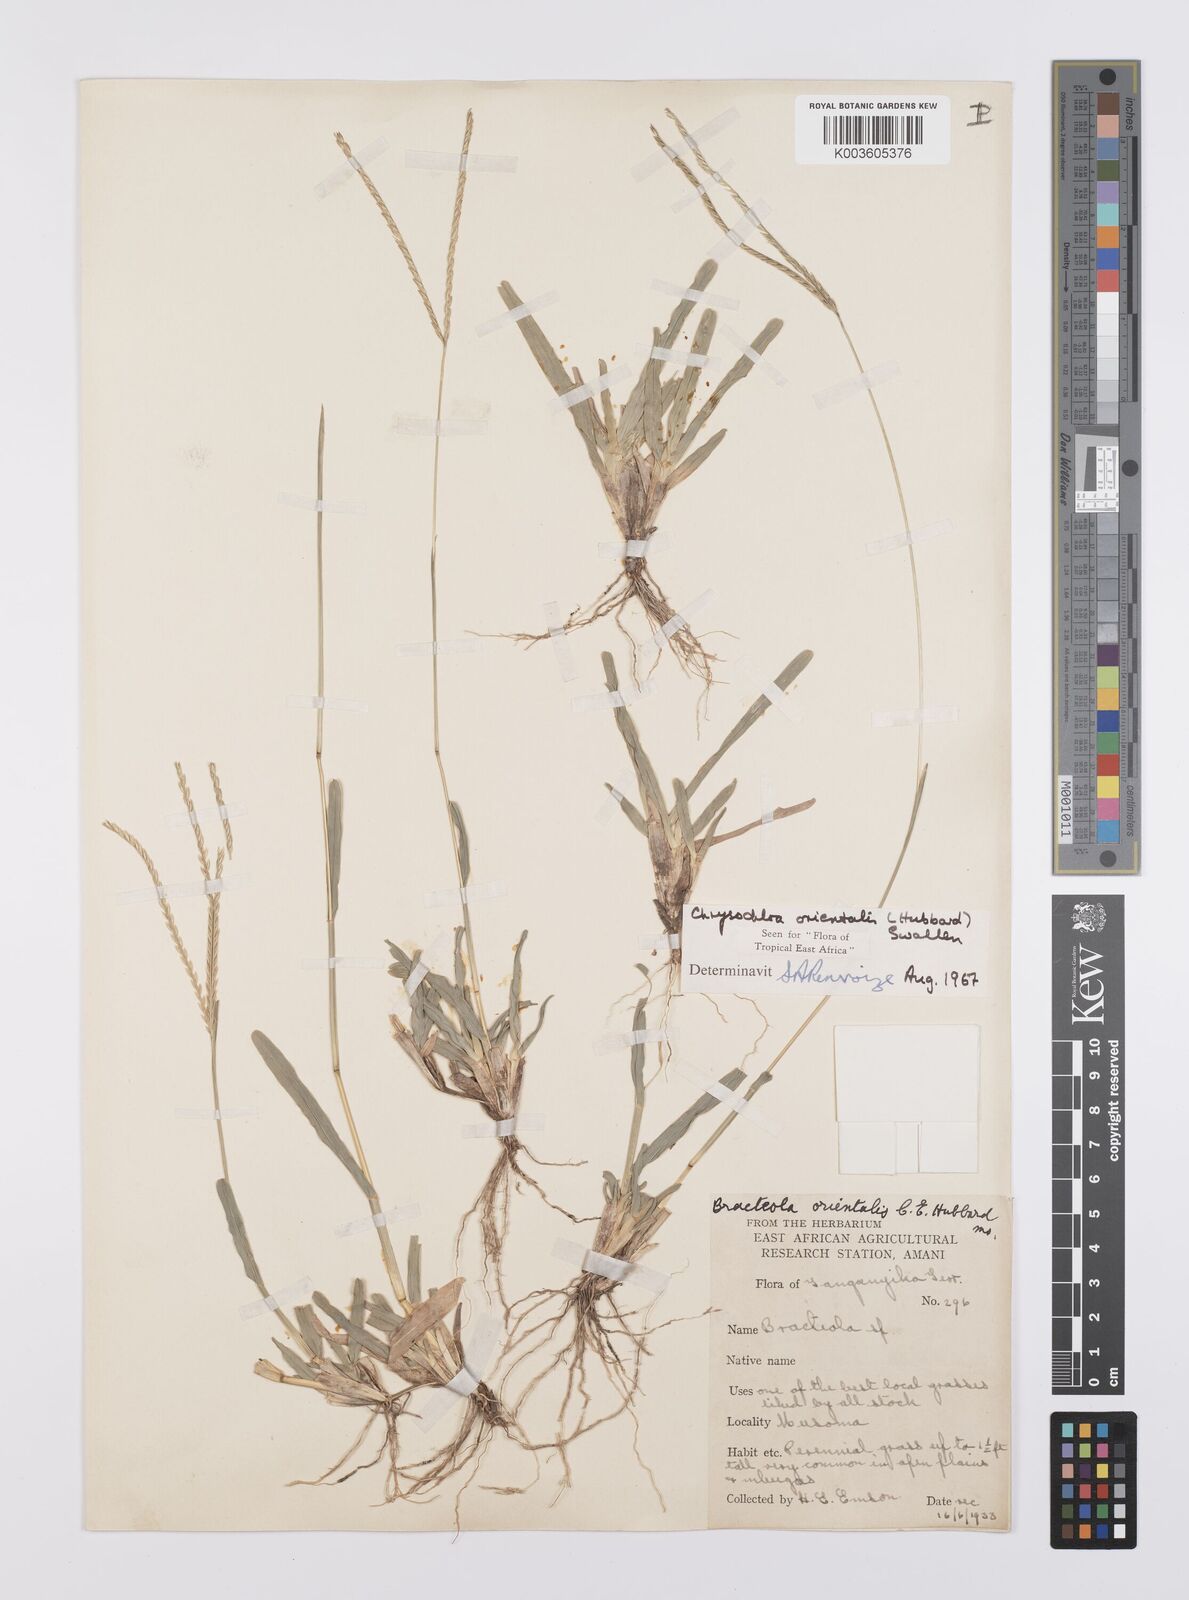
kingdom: Plantae
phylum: Tracheophyta
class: Liliopsida
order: Poales
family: Poaceae
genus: Chrysochloa
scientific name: Chrysochloa orientalis
